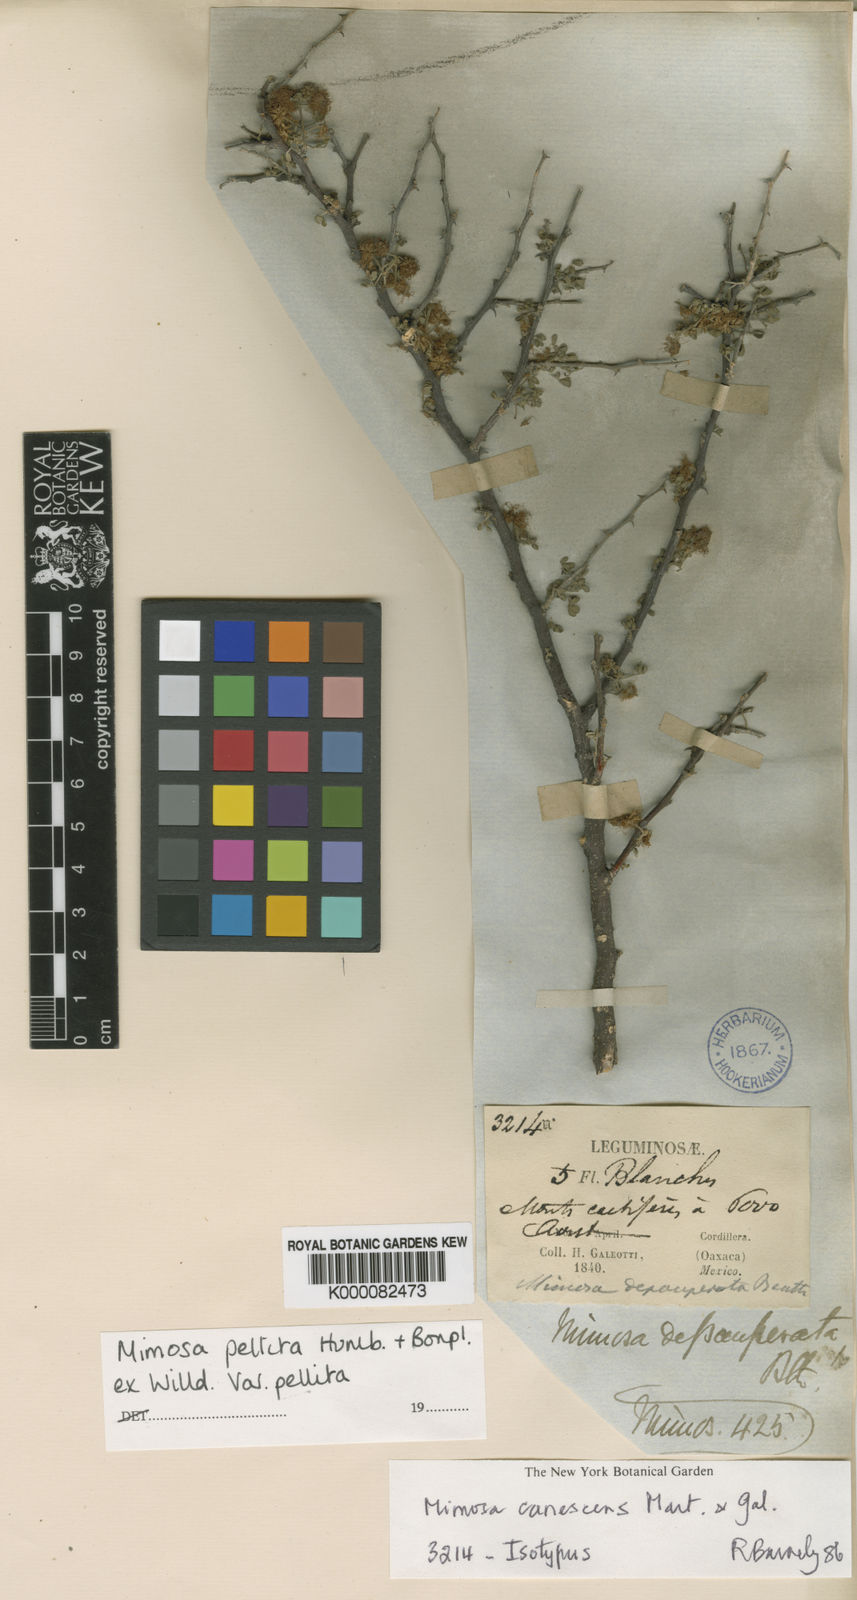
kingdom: Plantae
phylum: Tracheophyta
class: Magnoliopsida
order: Fabales
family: Fabaceae
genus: Mimosa
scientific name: Mimosa calcicola
